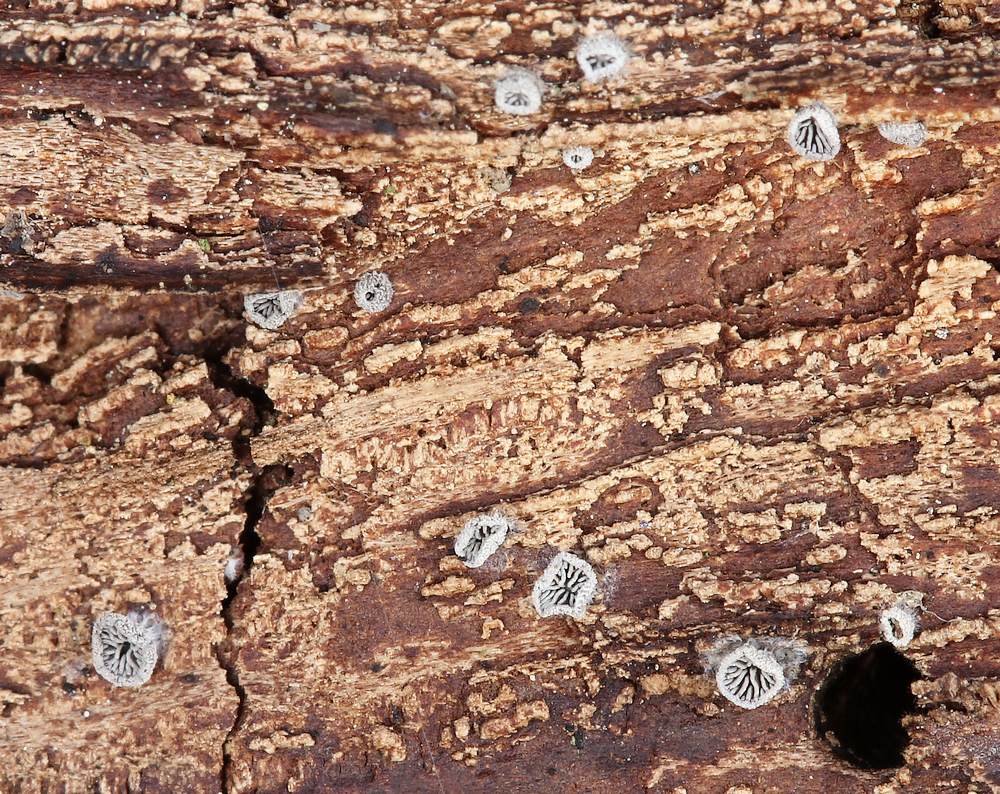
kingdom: Fungi
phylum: Basidiomycota
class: Agaricomycetes
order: Agaricales
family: Pleurotaceae
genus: Resupinatus
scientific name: Resupinatus applicatus
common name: lysfiltet barkhat
